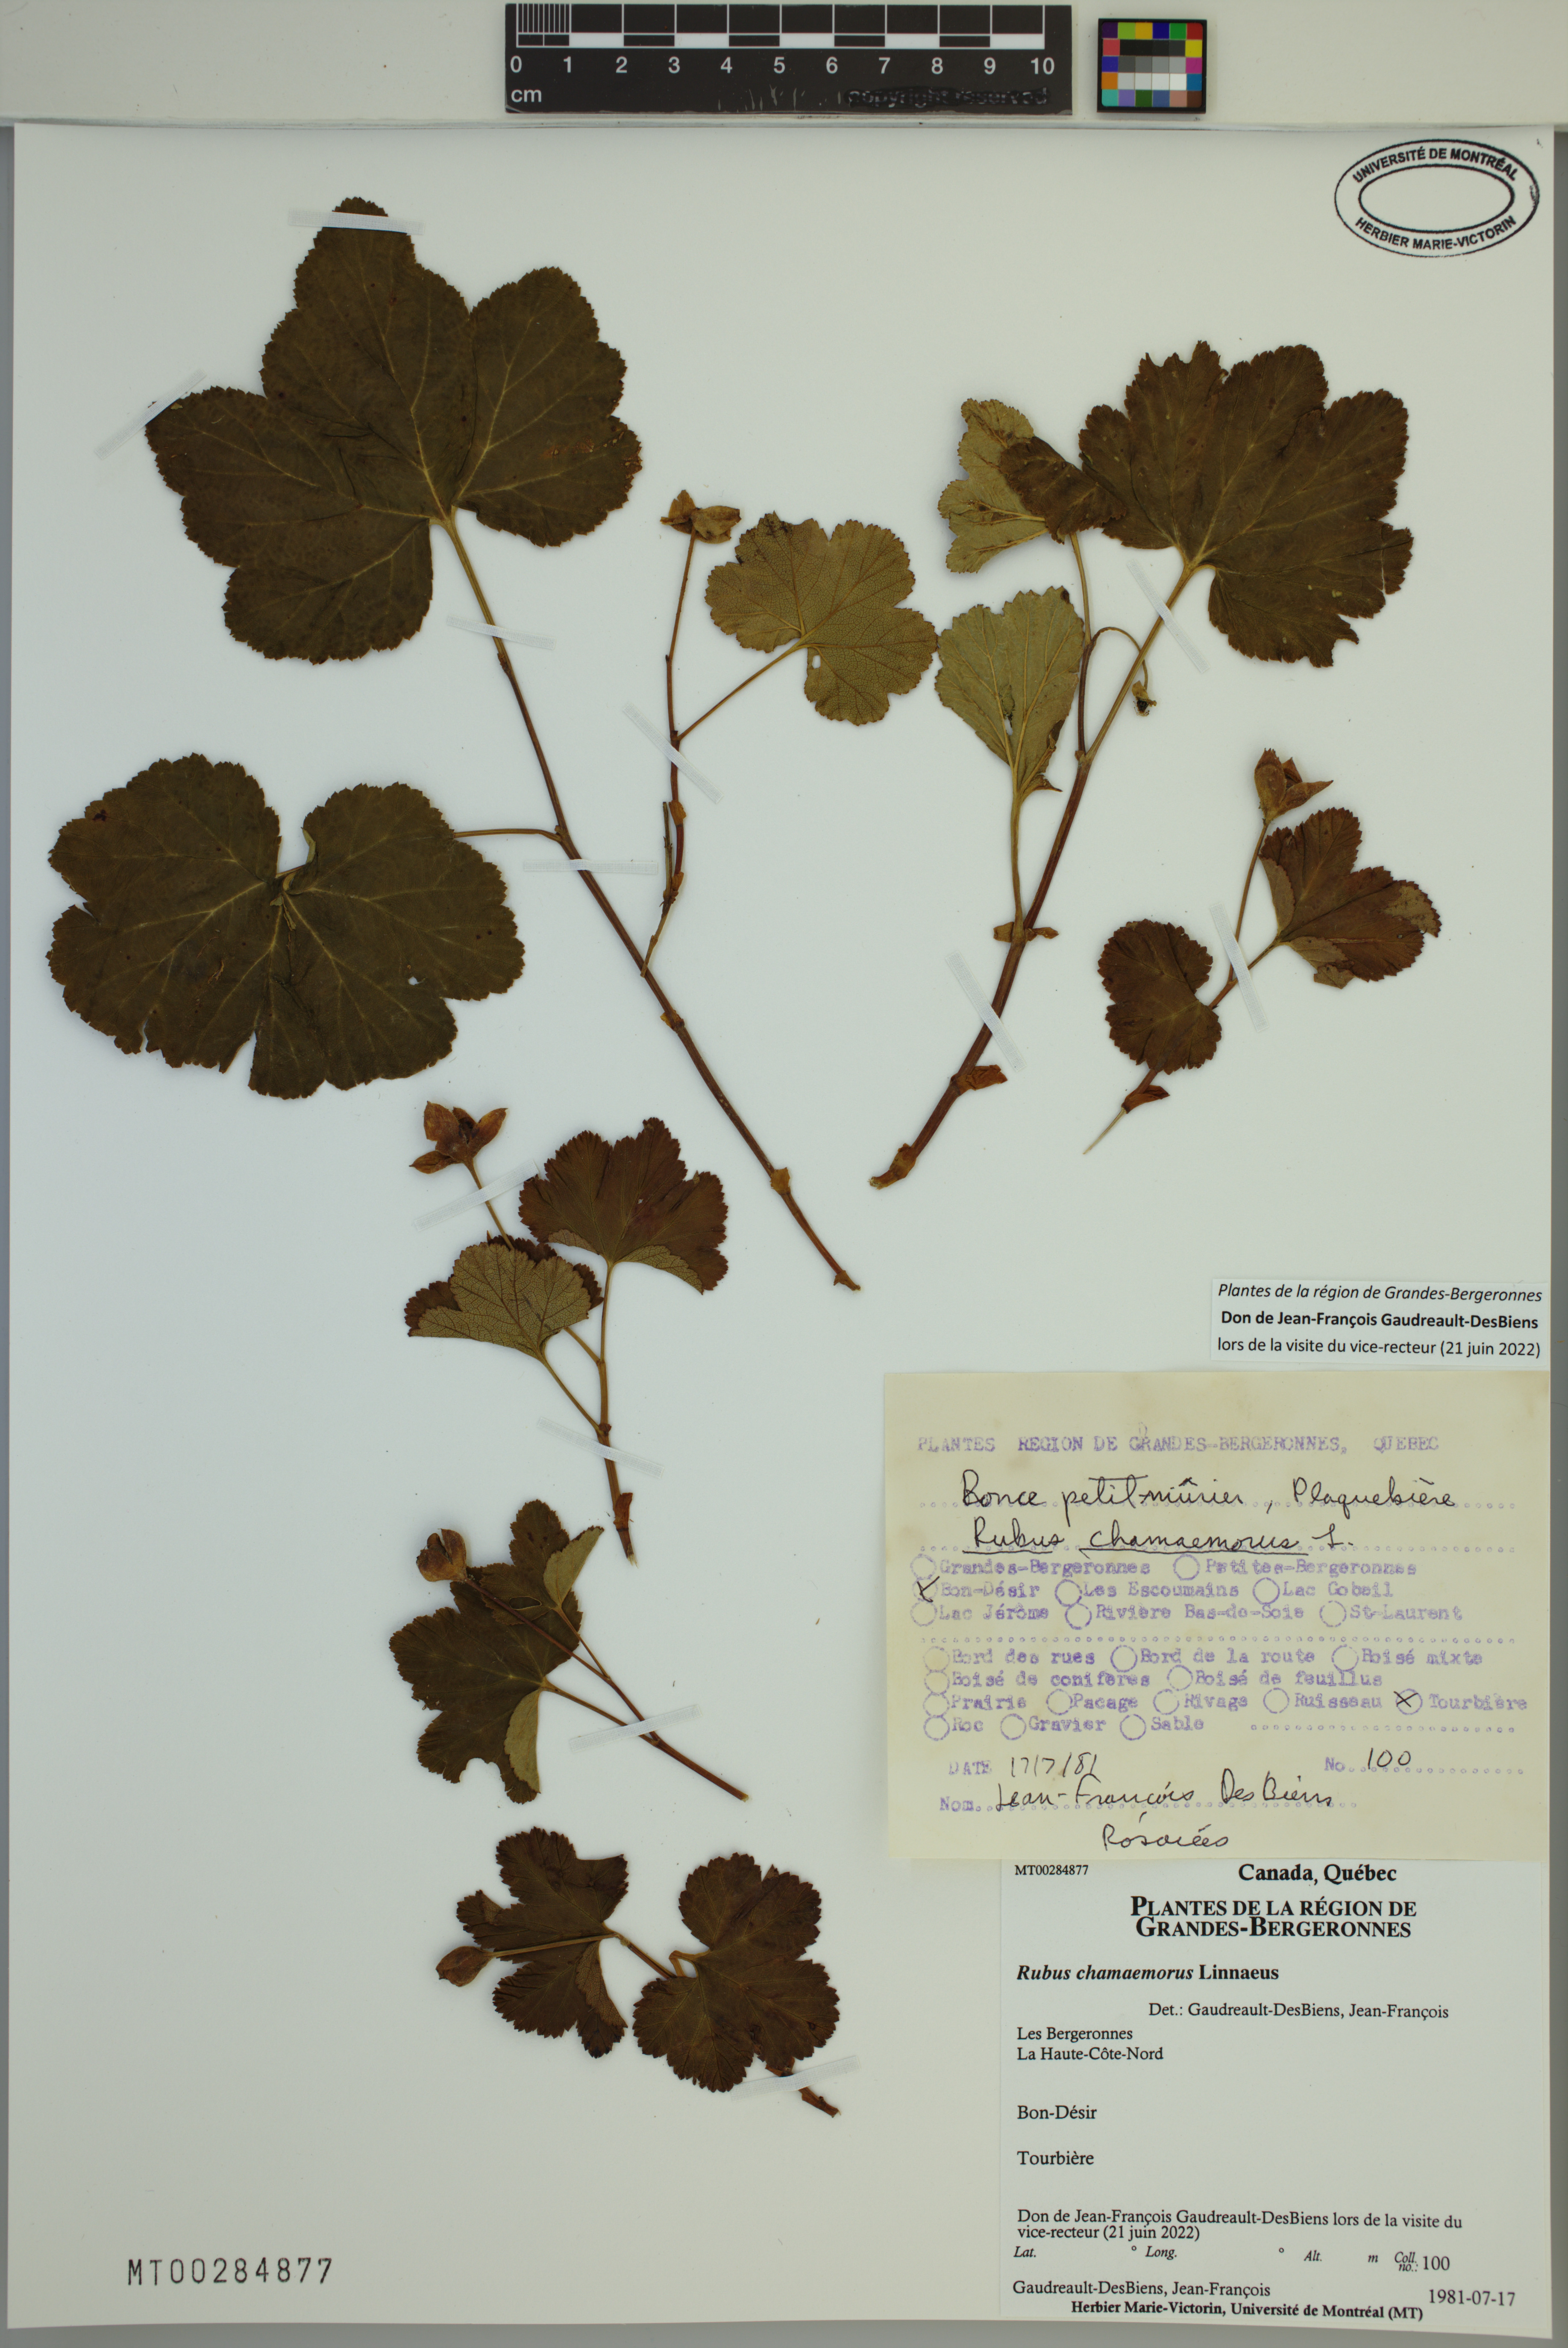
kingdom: Plantae
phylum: Tracheophyta
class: Magnoliopsida
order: Rosales
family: Rosaceae
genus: Rubus
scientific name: Rubus chamaemorus
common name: Cloudberry
